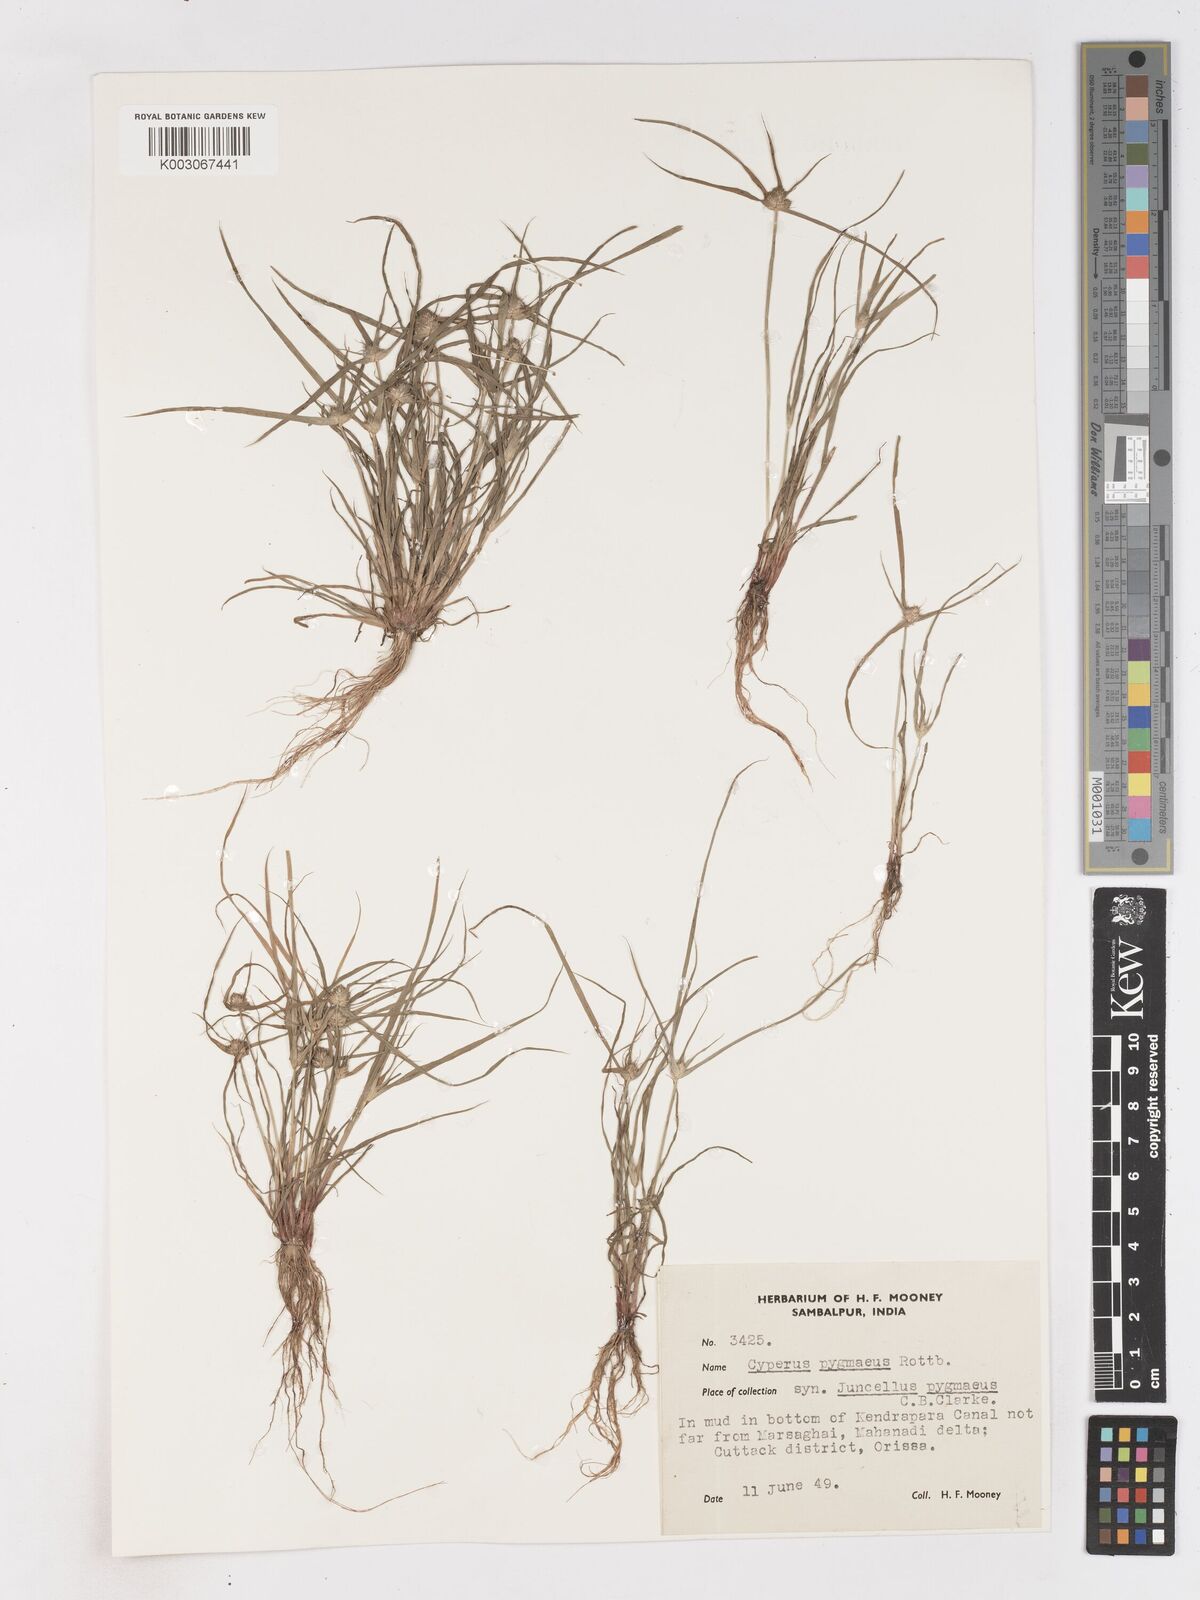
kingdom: Plantae
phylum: Tracheophyta
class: Liliopsida
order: Poales
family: Cyperaceae
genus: Cyperus
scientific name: Cyperus michelianus
